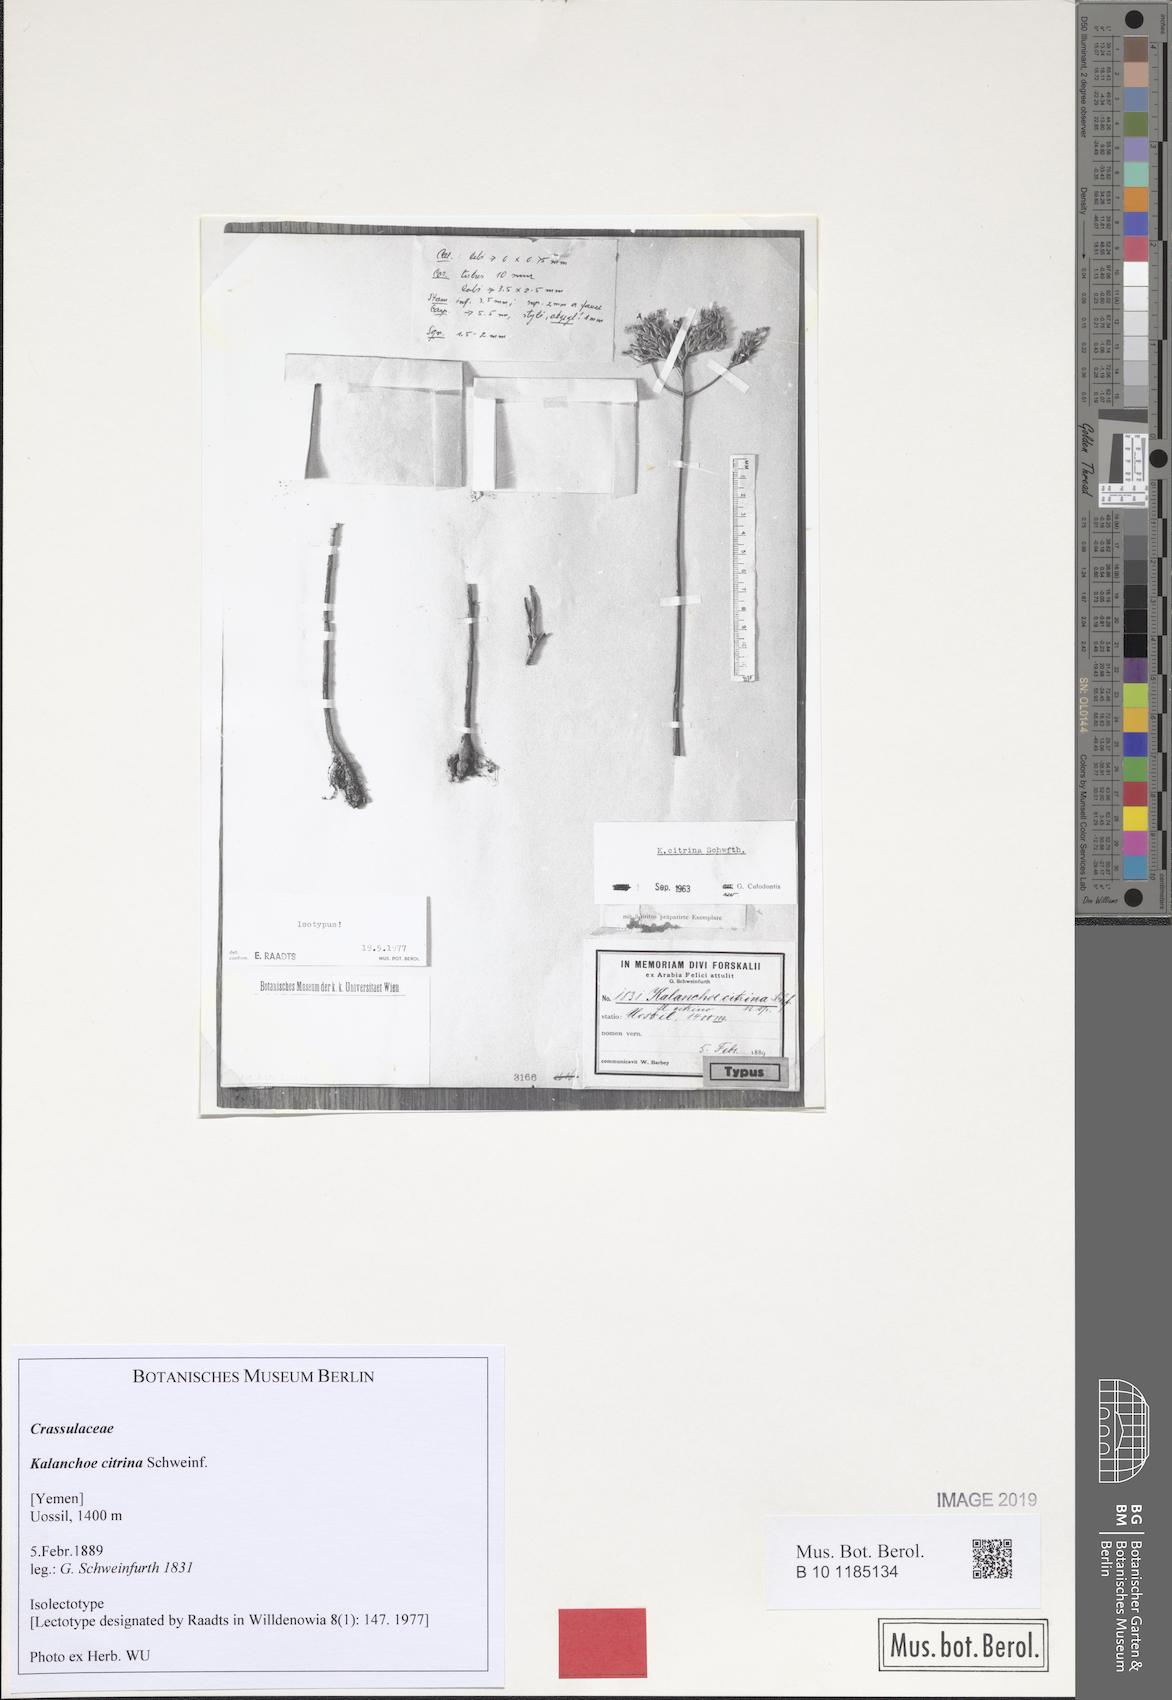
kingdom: Plantae
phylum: Tracheophyta
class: Magnoliopsida
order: Saxifragales
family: Crassulaceae
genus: Kalanchoe
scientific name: Kalanchoe citrina
